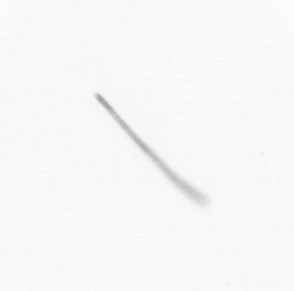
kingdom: Chromista
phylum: Ochrophyta
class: Bacillariophyceae
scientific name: Bacillariophyceae
